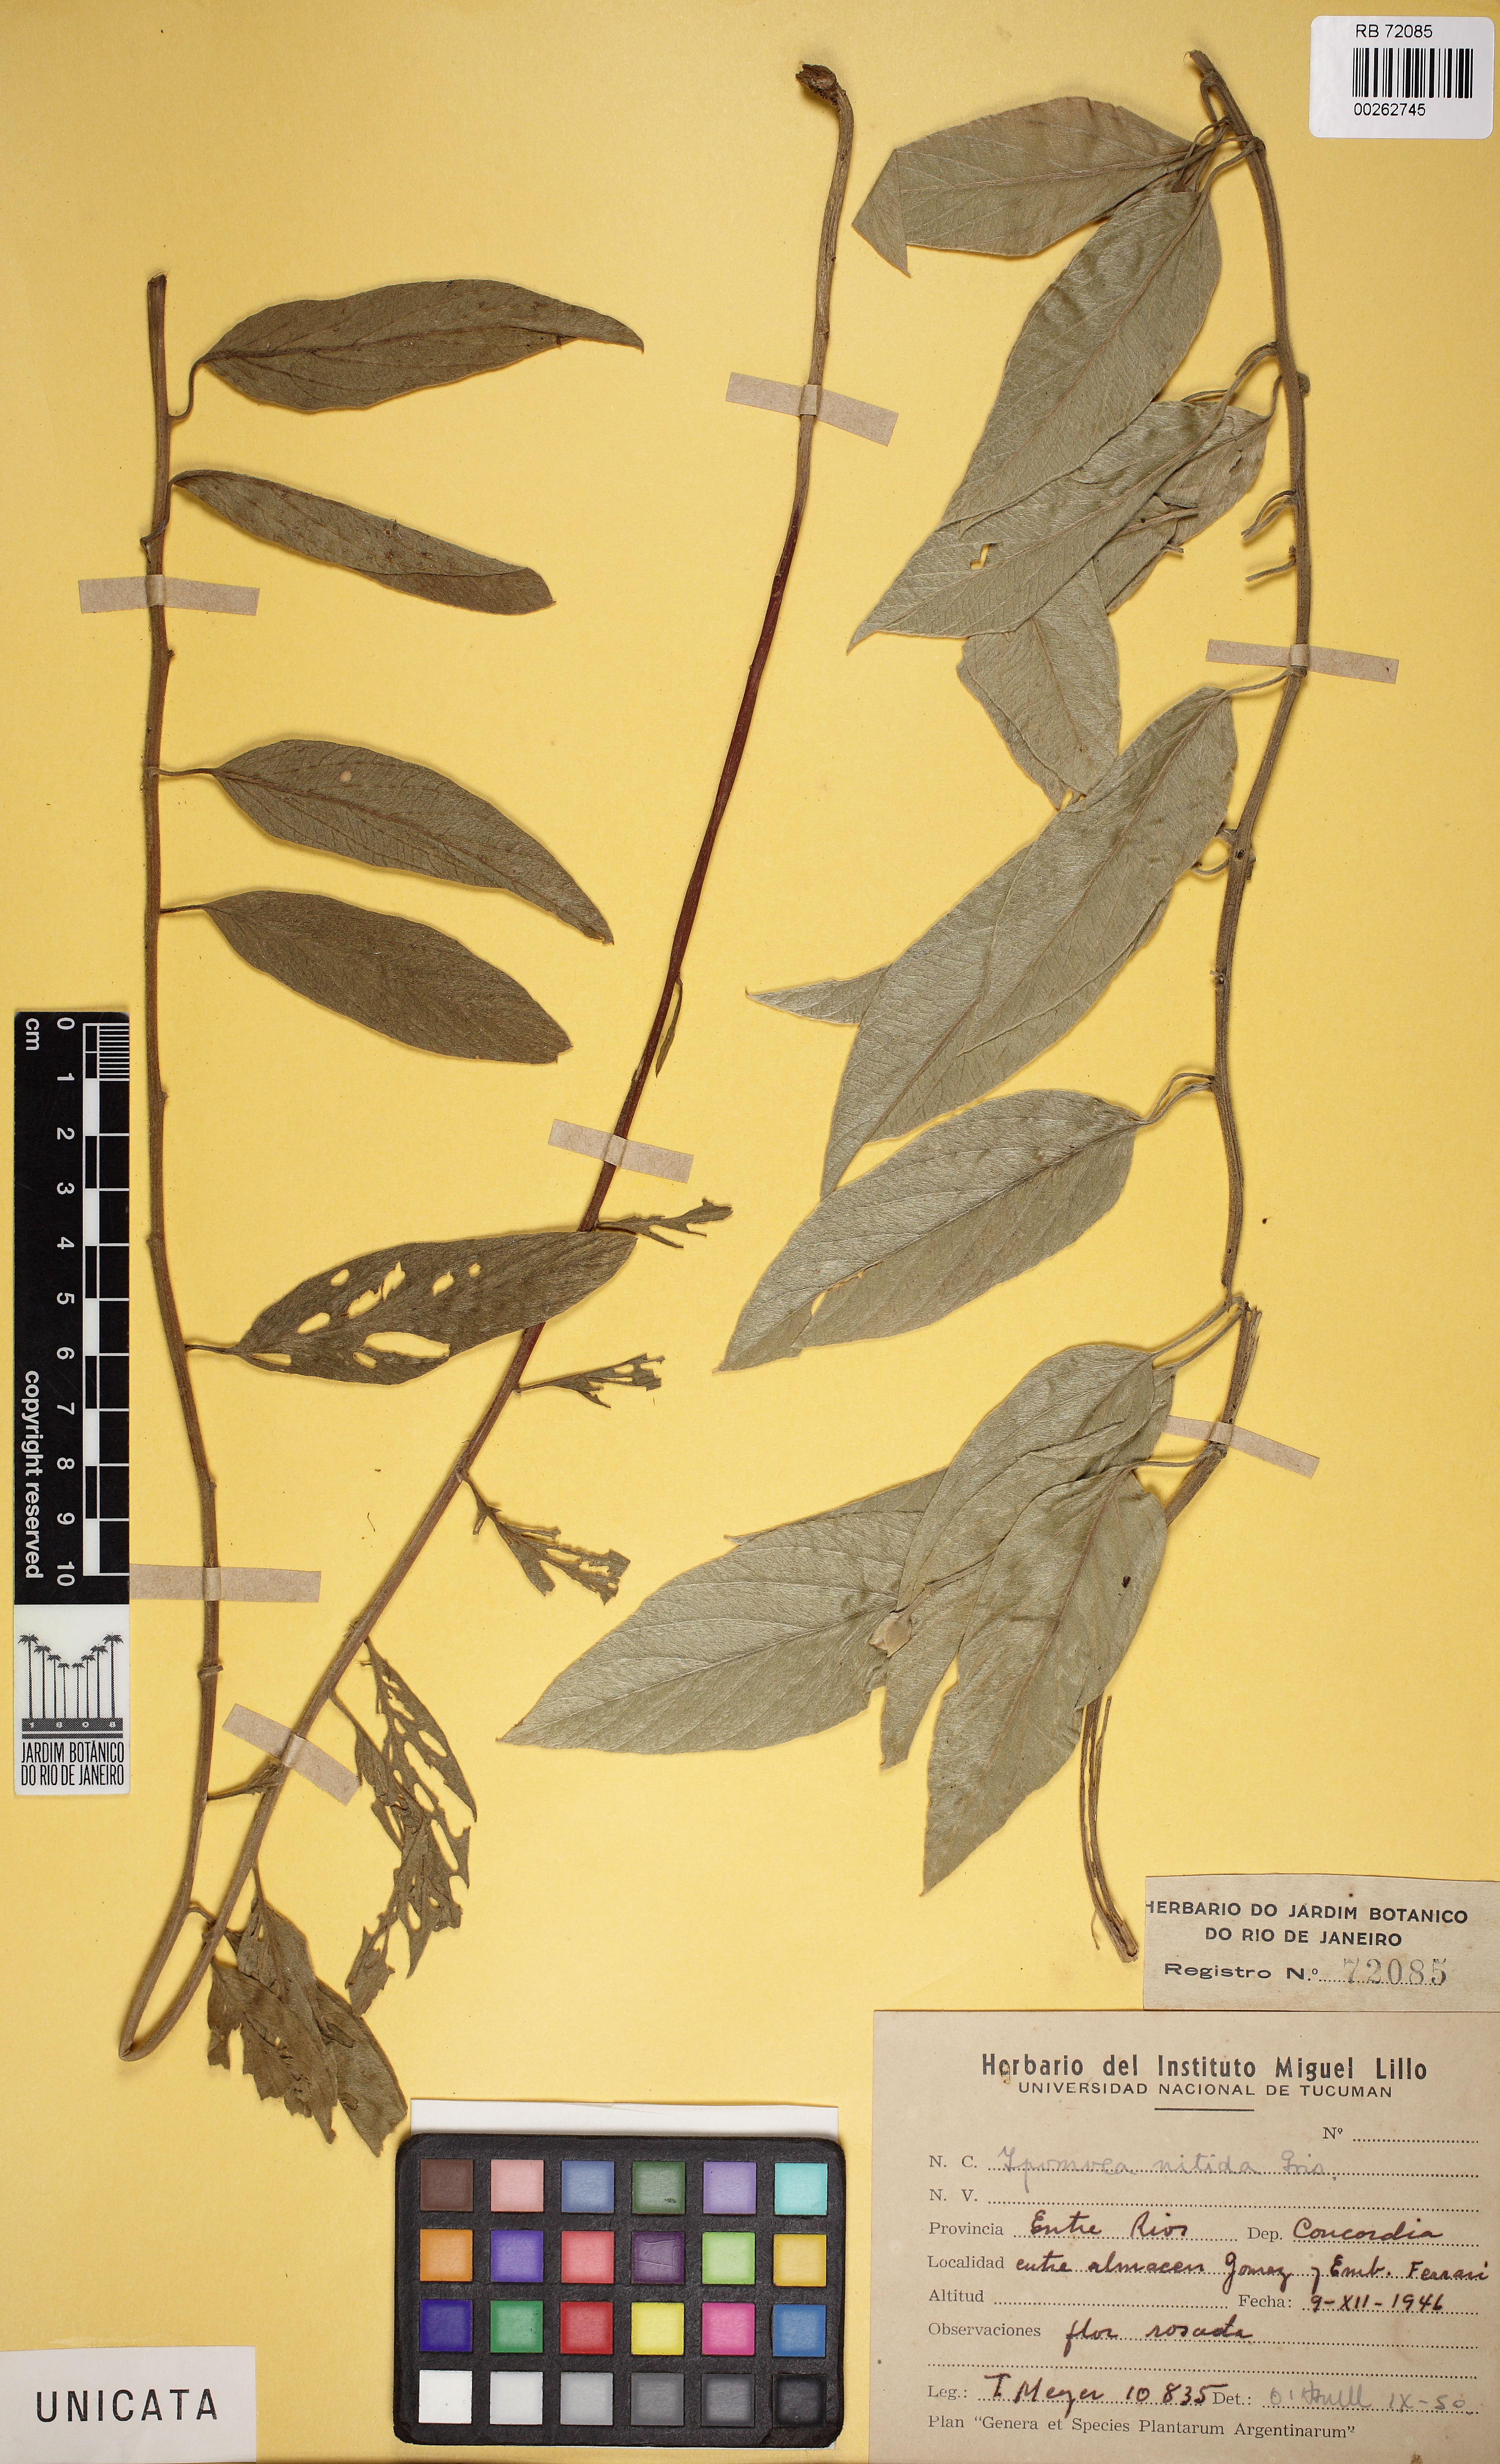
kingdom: Plantae
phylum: Tracheophyta
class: Magnoliopsida
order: Solanales
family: Convolvulaceae
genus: Ipomoea
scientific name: Ipomoea nitida
